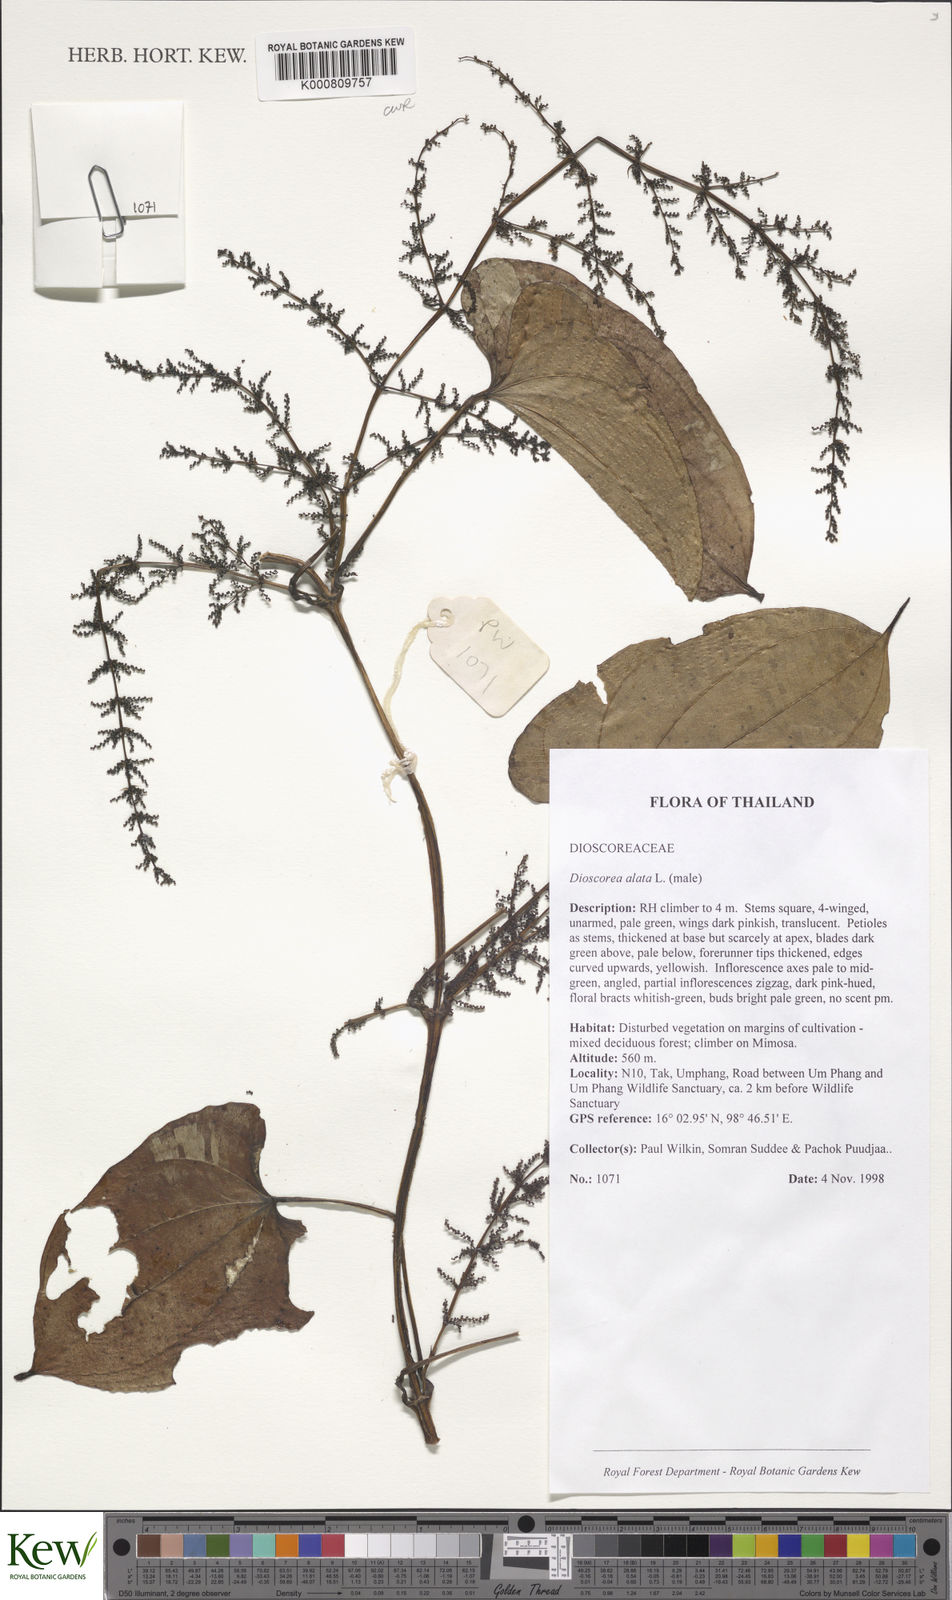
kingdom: Plantae
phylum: Tracheophyta
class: Liliopsida
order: Dioscoreales
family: Dioscoreaceae
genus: Dioscorea
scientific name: Dioscorea alata
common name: Water yam
